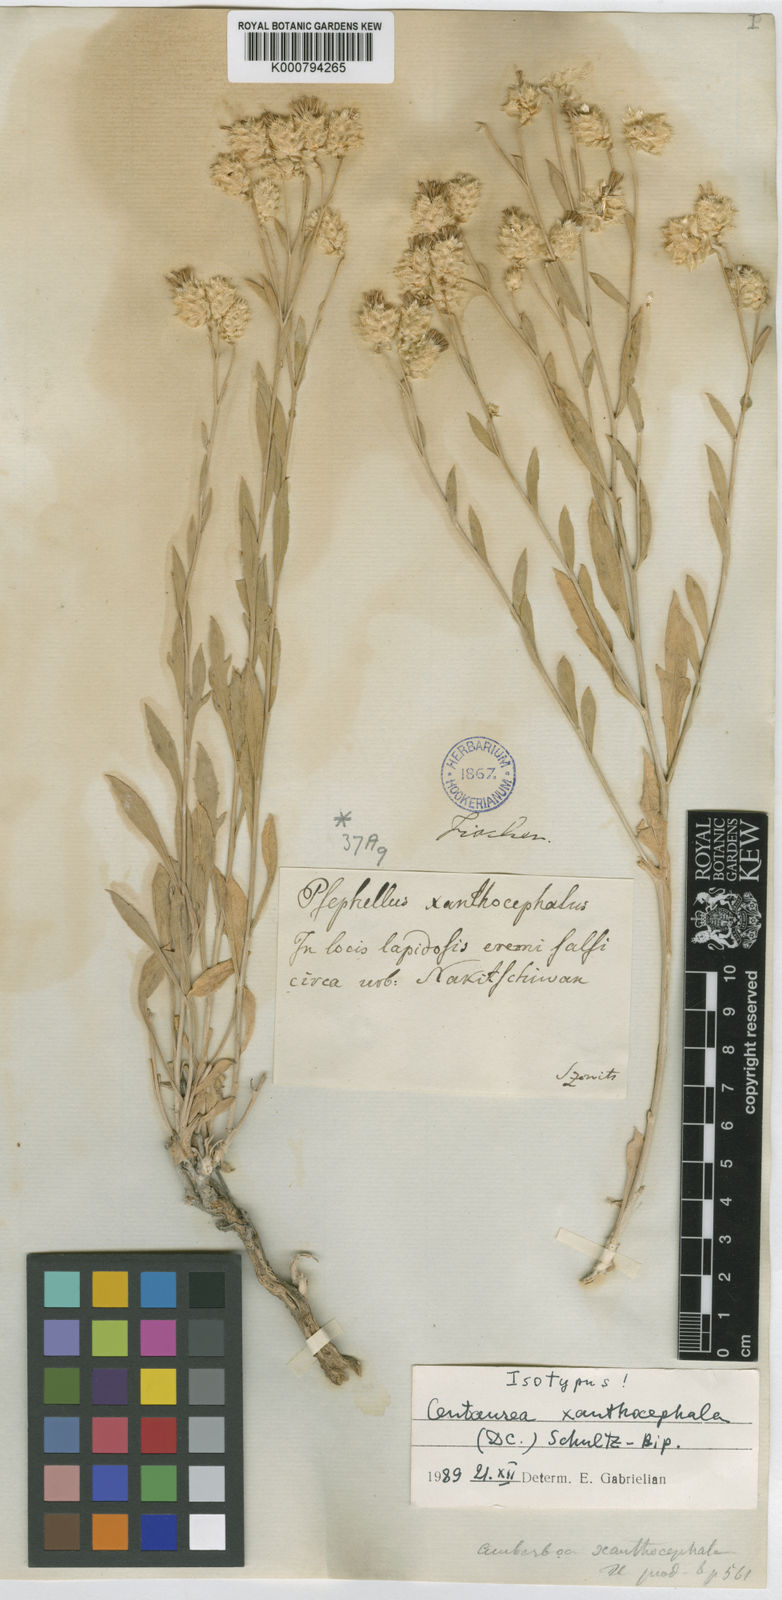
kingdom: Plantae
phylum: Tracheophyta
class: Magnoliopsida
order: Asterales
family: Asteraceae
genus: Psephellus
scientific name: Psephellus xanthocephalus
